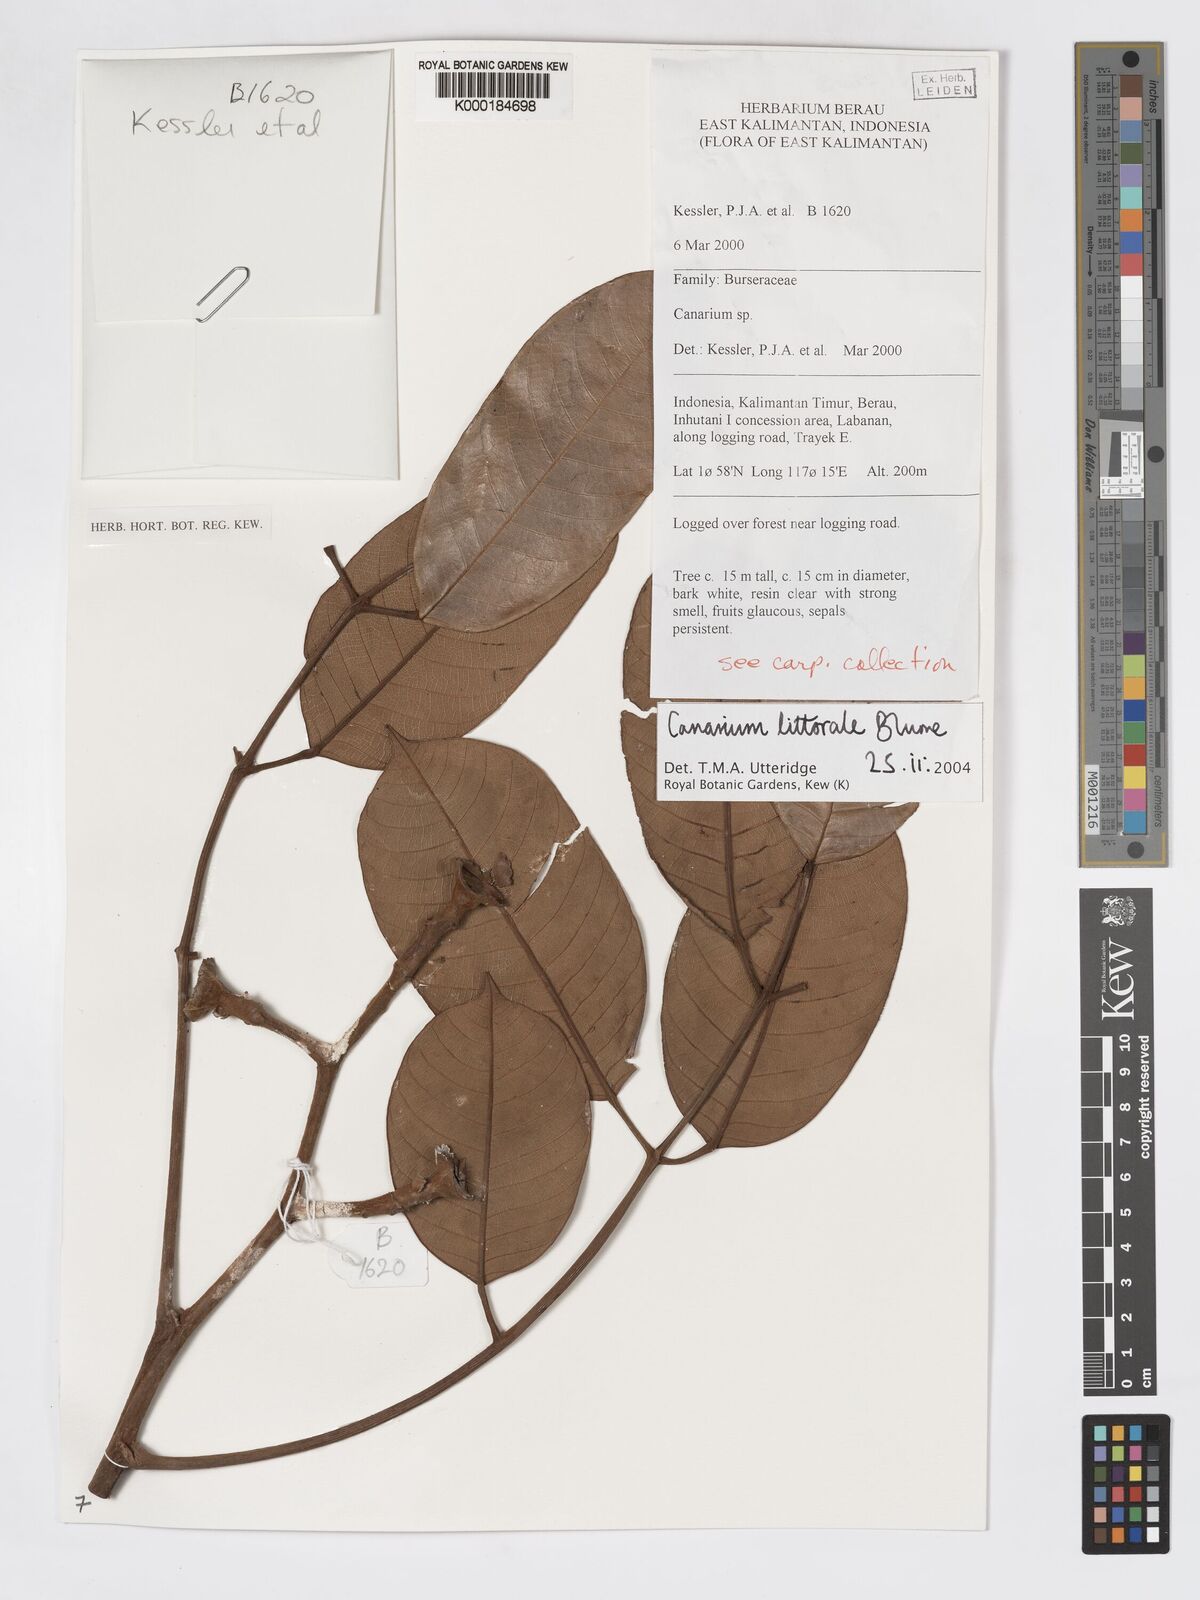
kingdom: Plantae
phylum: Tracheophyta
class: Magnoliopsida
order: Sapindales
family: Burseraceae
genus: Canarium
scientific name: Canarium littorale
